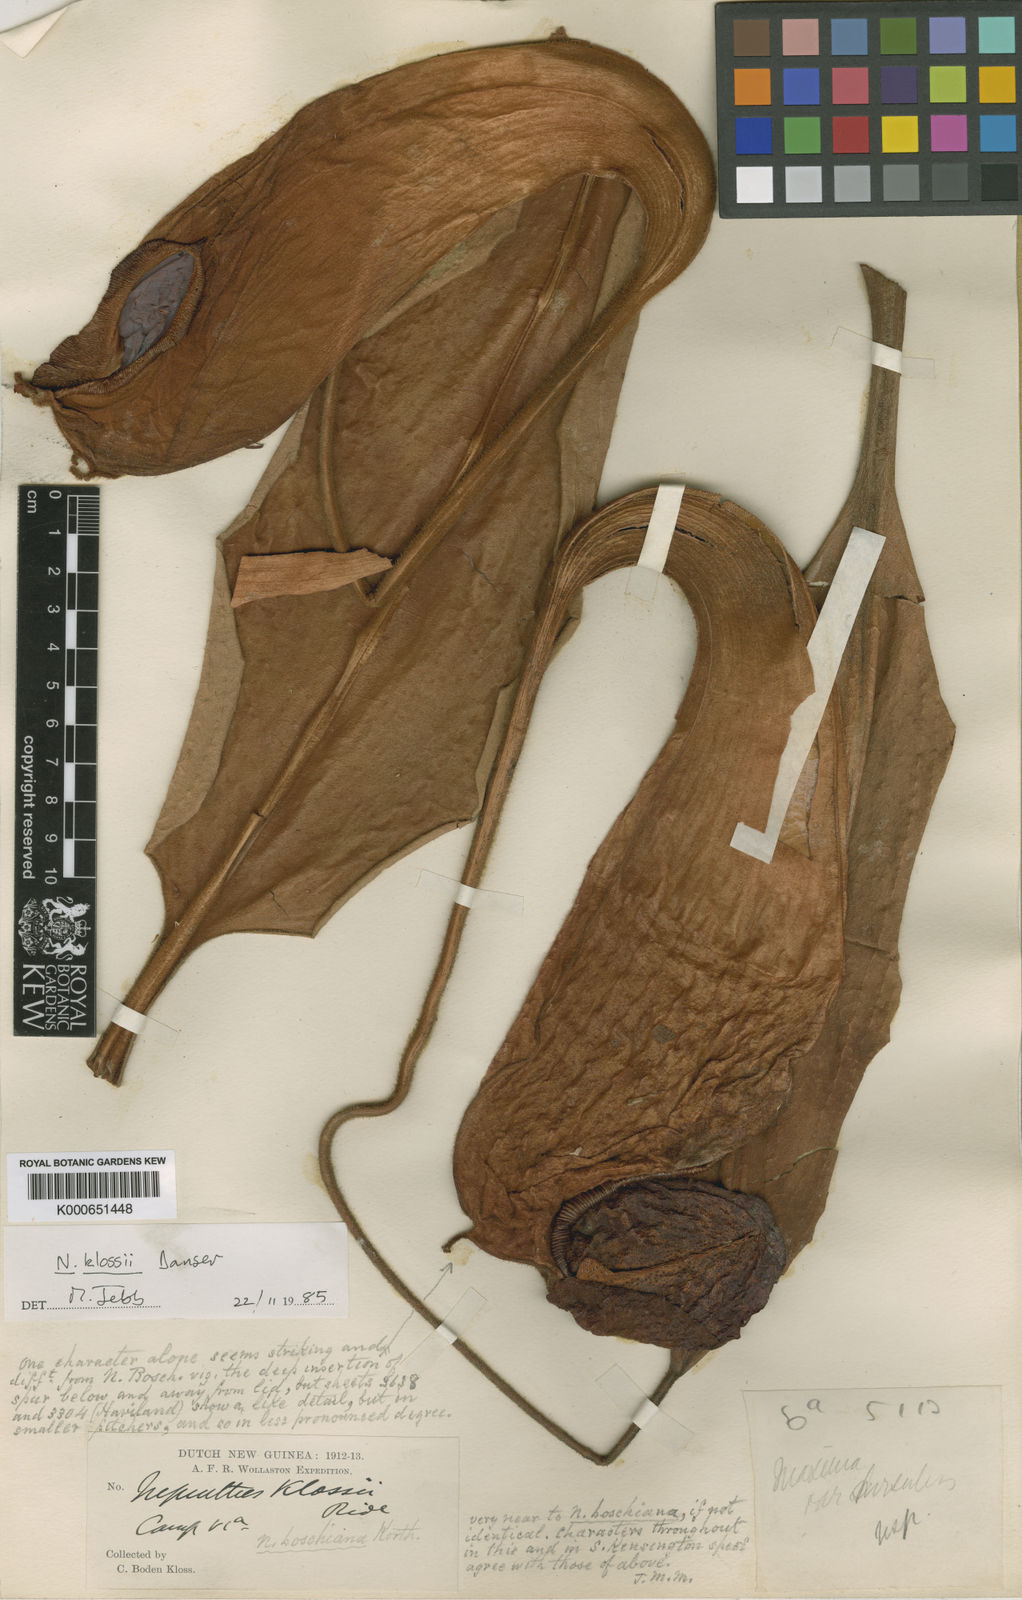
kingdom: Plantae
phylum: Tracheophyta
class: Magnoliopsida
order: Caryophyllales
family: Nepenthaceae
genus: Nepenthes
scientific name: Nepenthes
